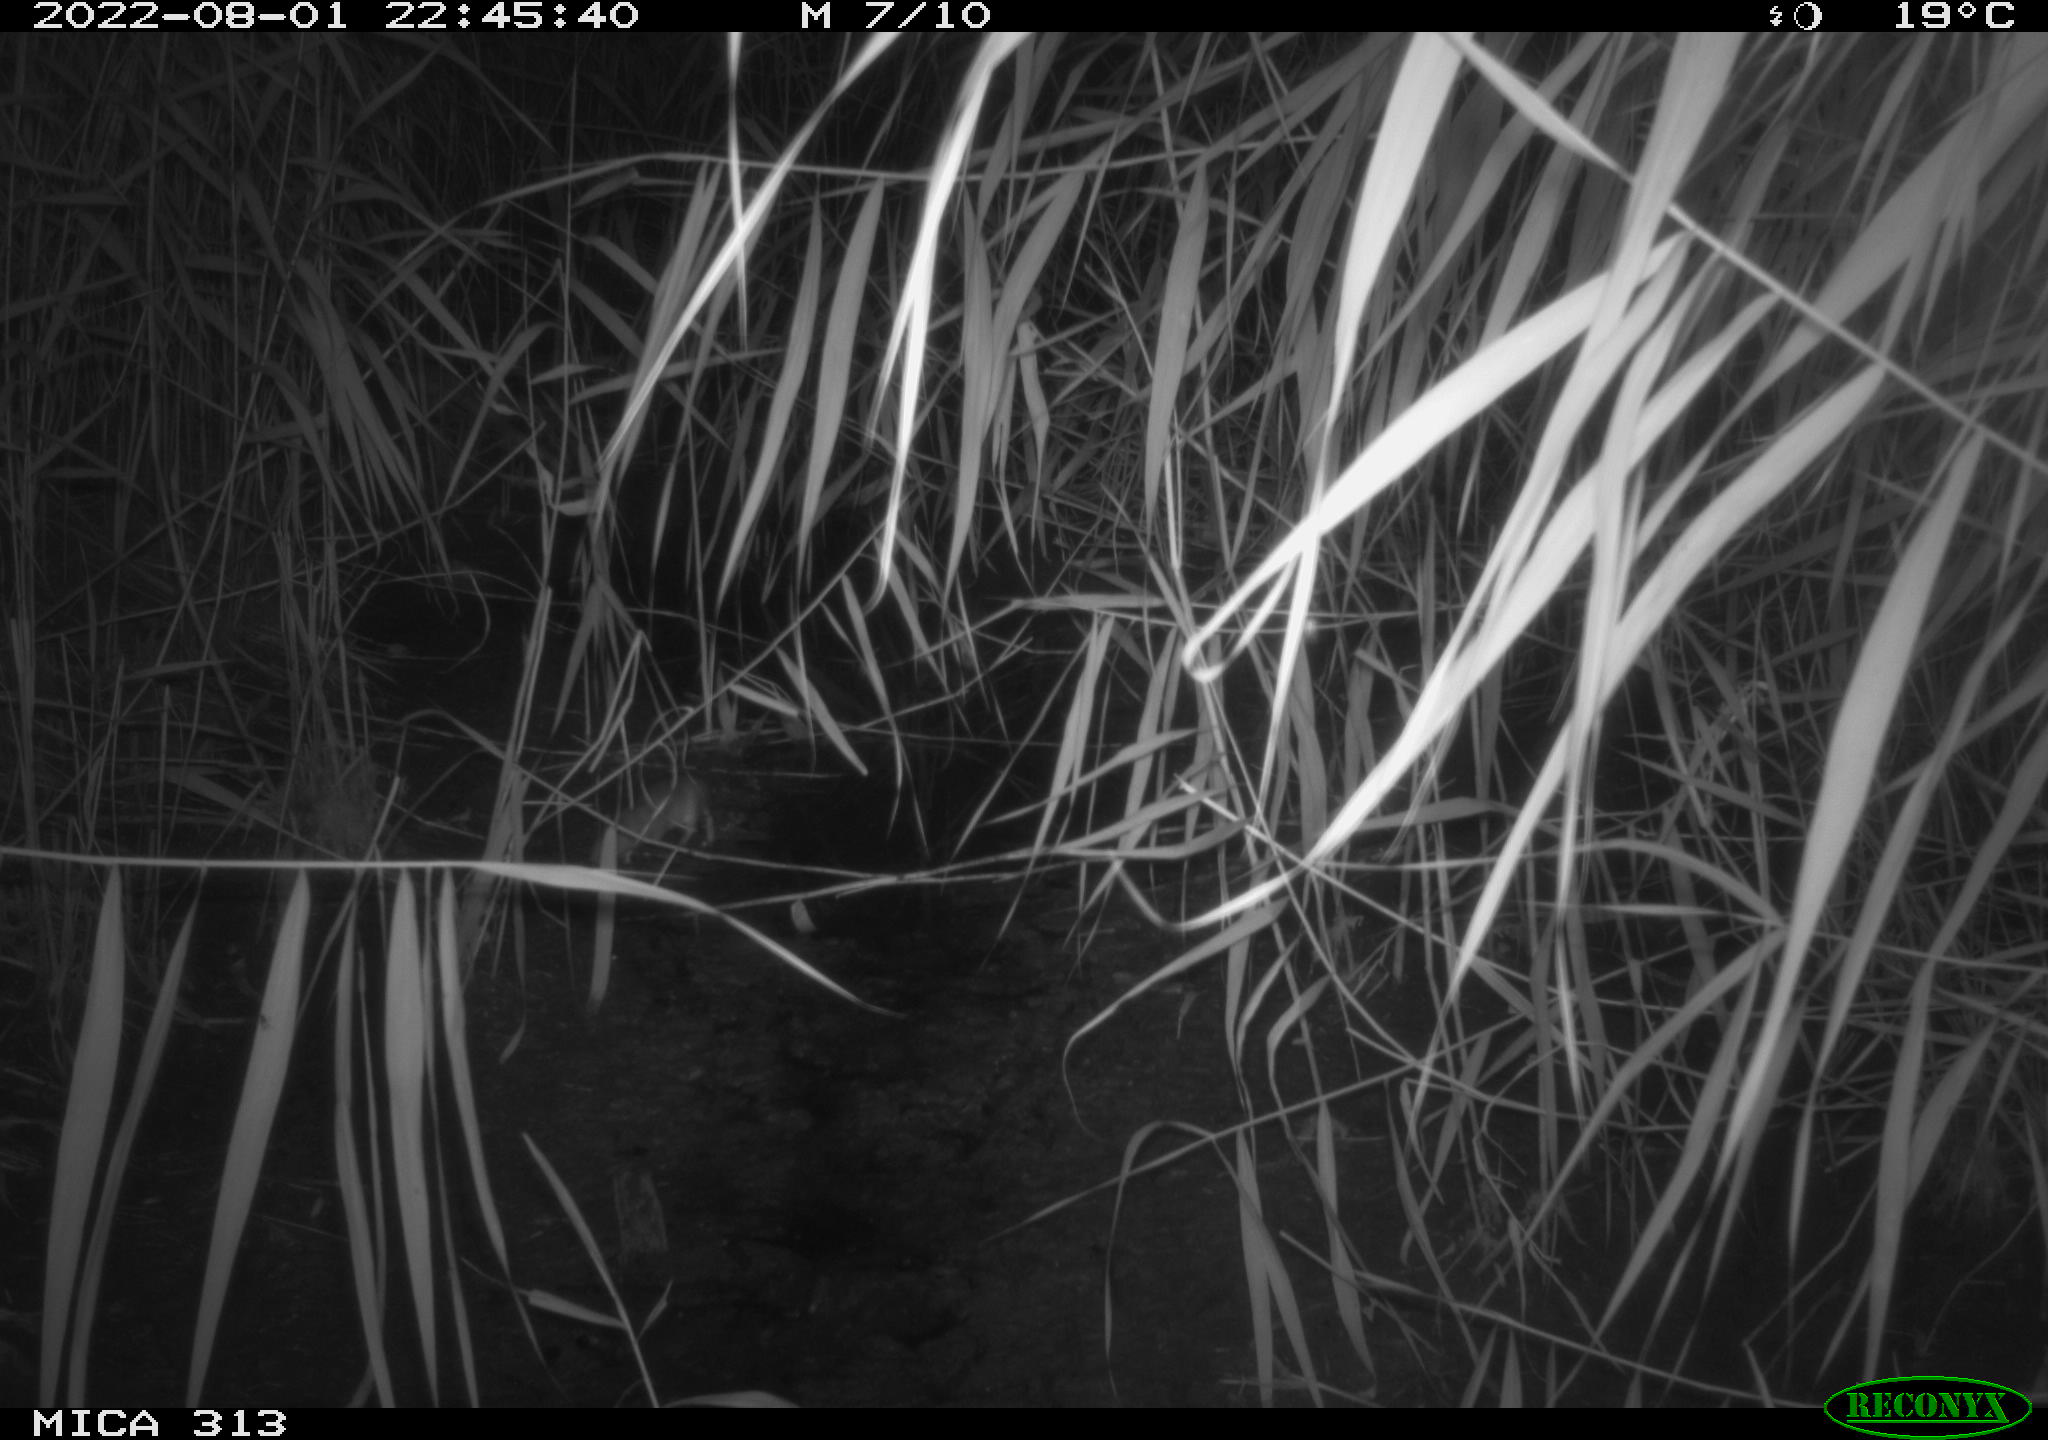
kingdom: Animalia
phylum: Chordata
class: Mammalia
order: Rodentia
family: Muridae
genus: Rattus
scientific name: Rattus norvegicus
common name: Brown rat
